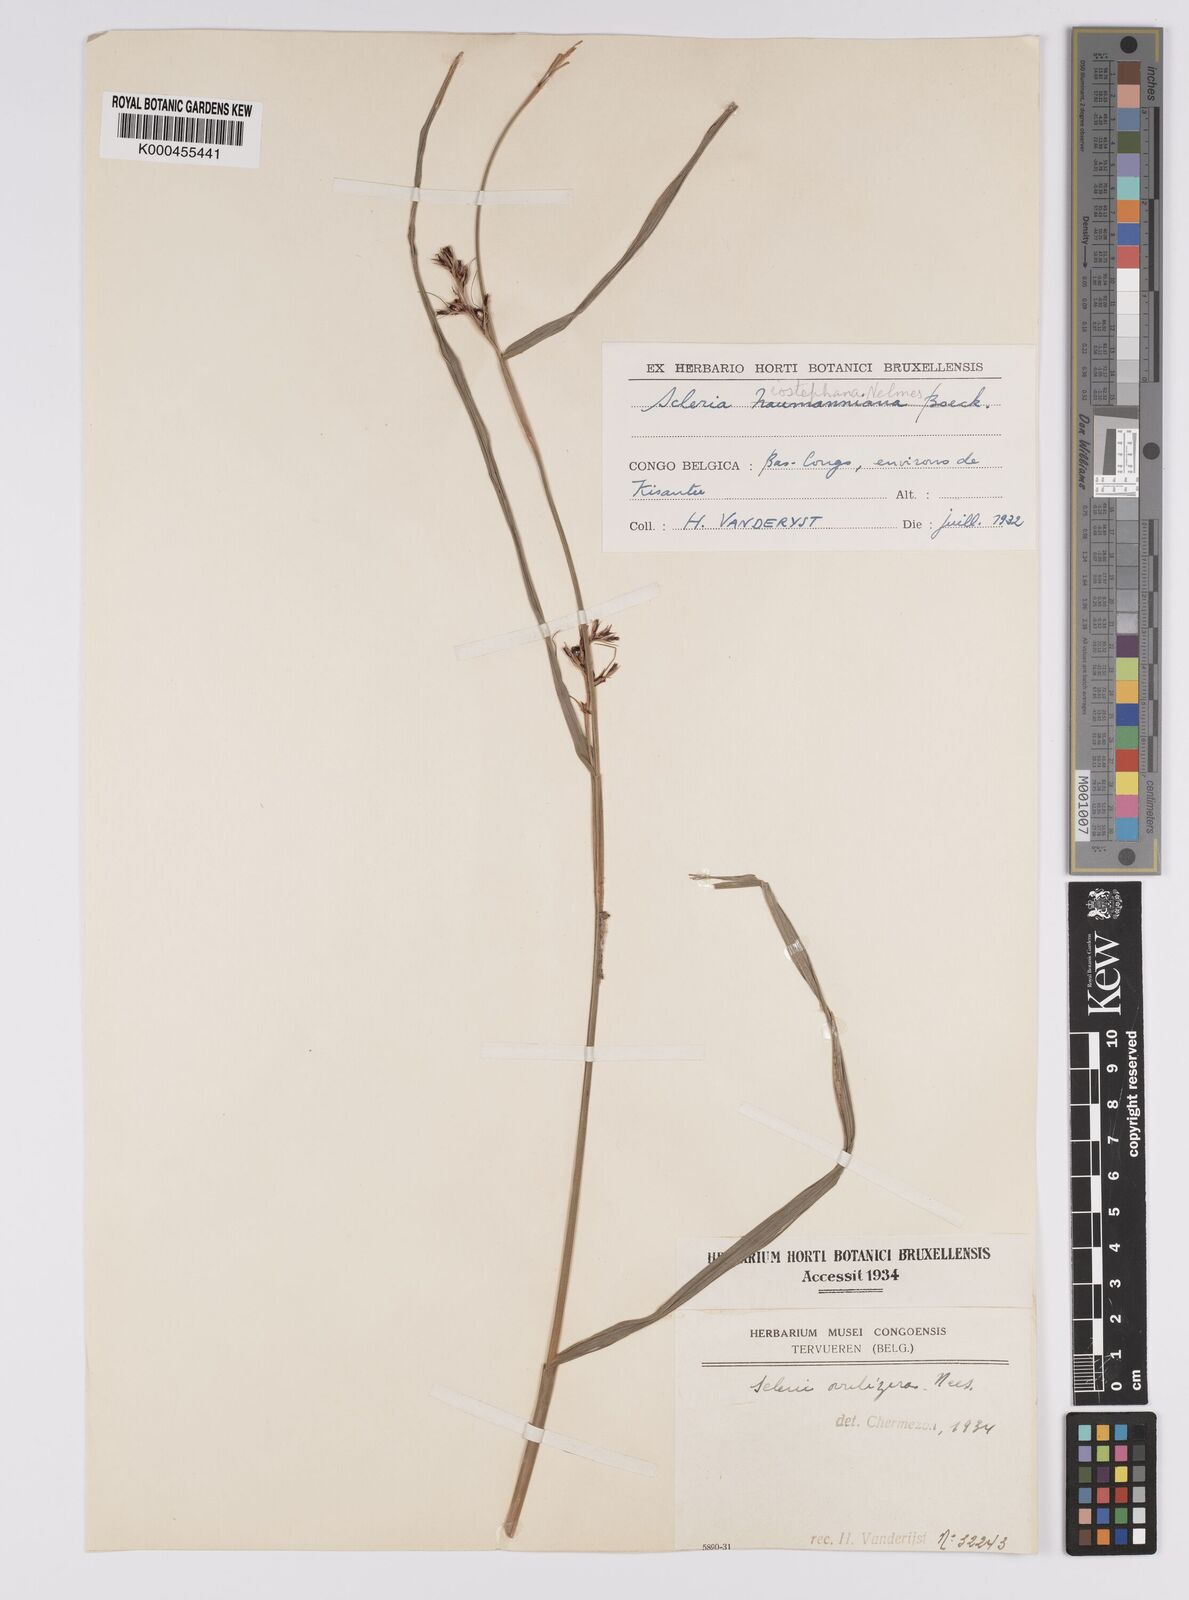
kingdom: Plantae
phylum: Tracheophyta
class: Liliopsida
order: Poales
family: Cyperaceae
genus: Scleria
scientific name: Scleria iostephana
